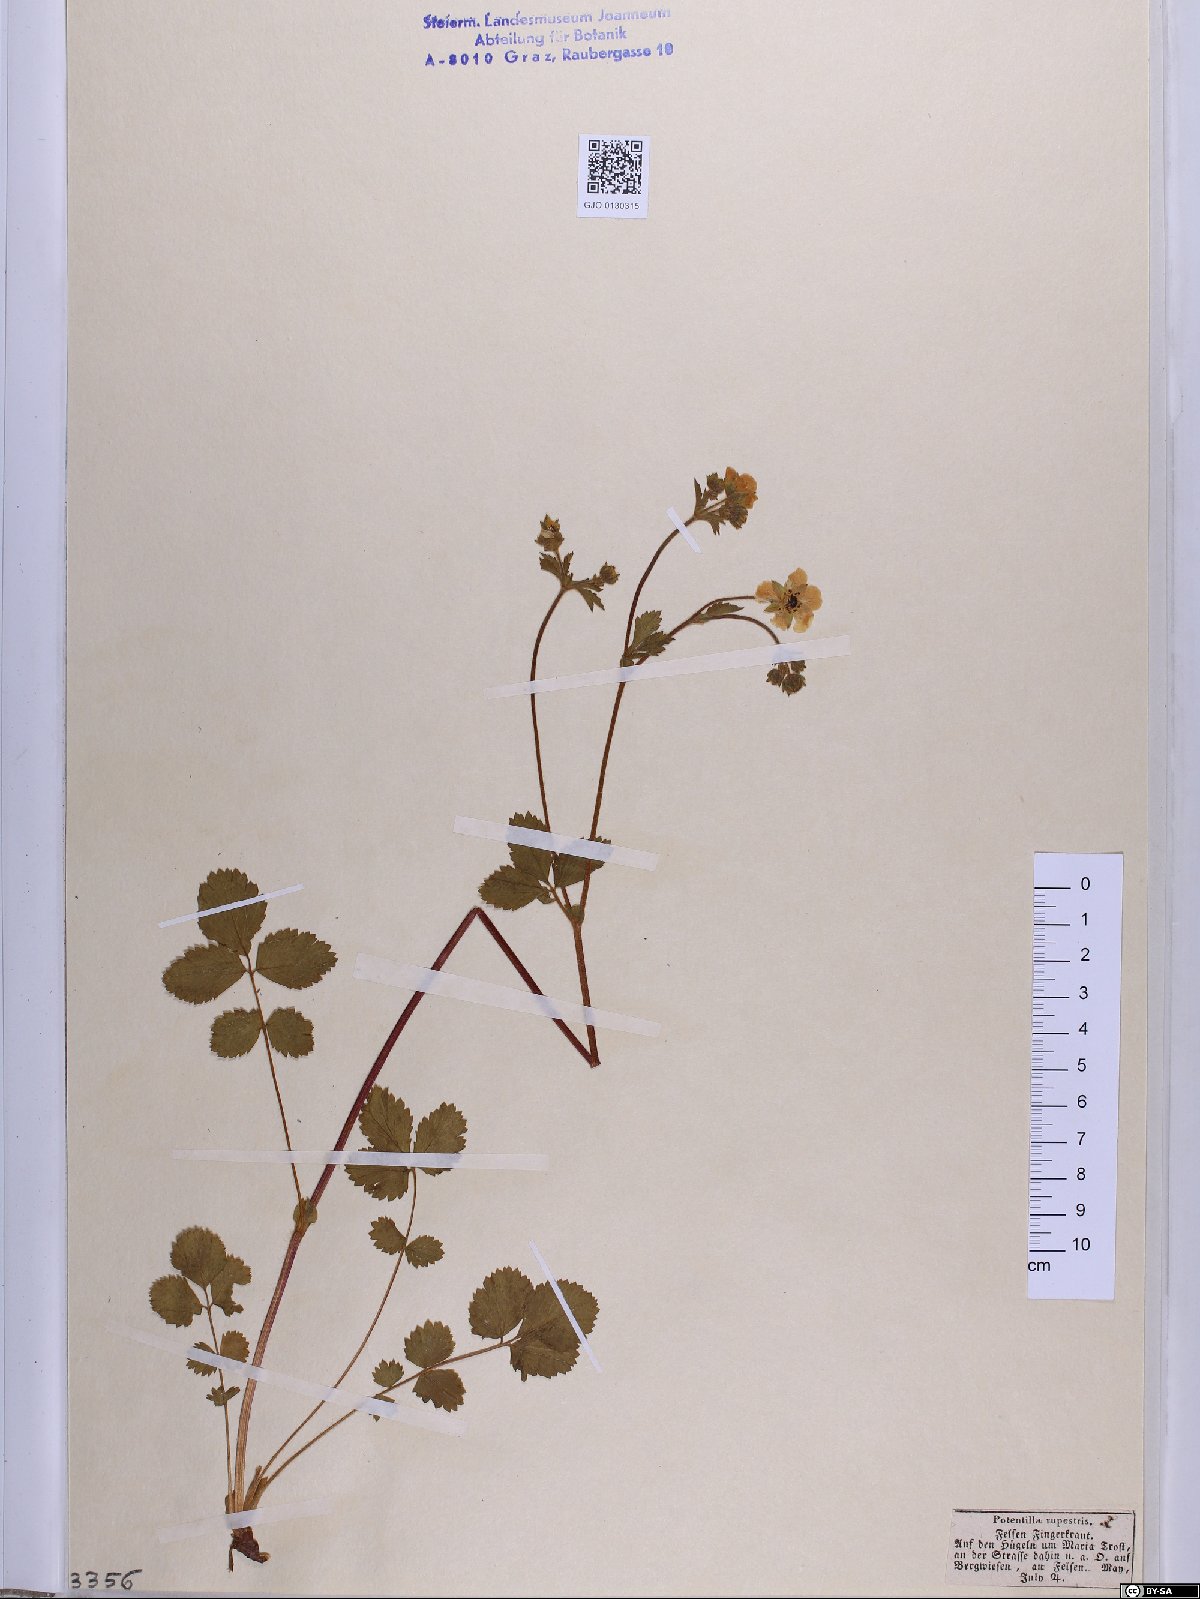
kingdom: Plantae
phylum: Tracheophyta
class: Magnoliopsida
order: Rosales
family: Rosaceae
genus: Drymocallis
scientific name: Drymocallis rupestris
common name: Rock cinquefoil
